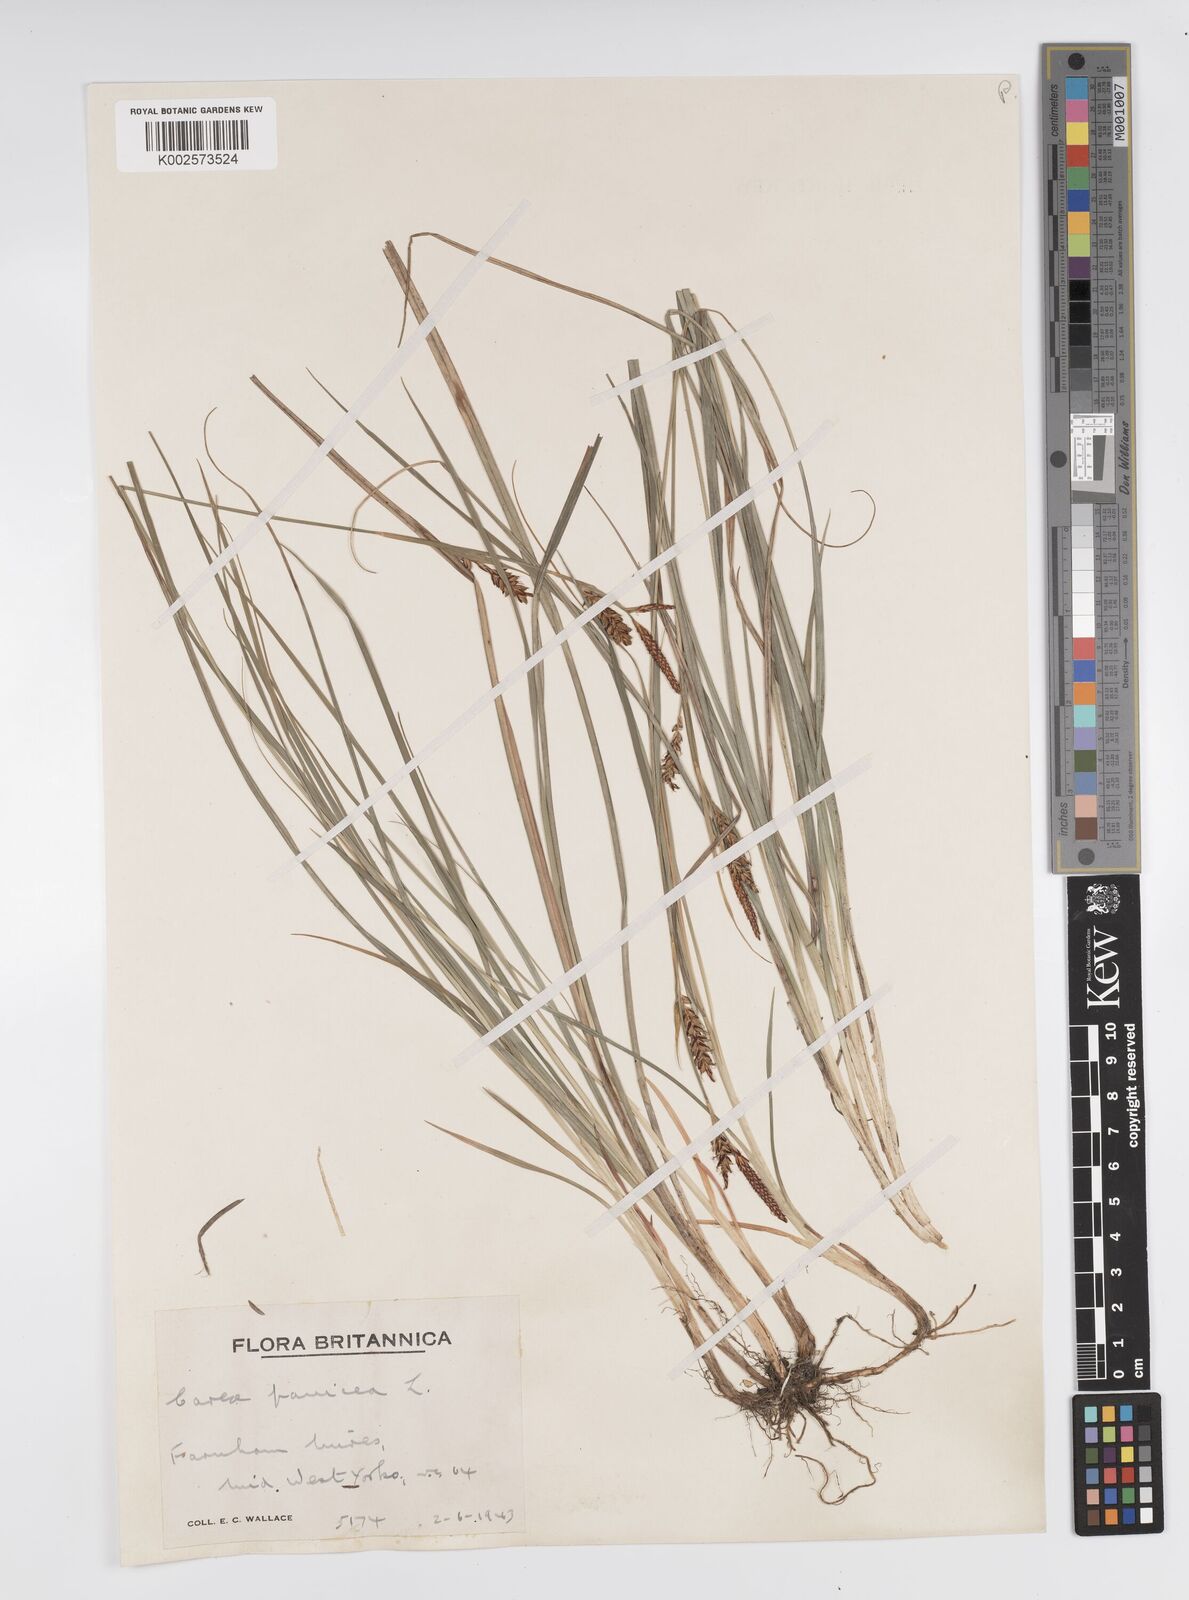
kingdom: Plantae
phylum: Tracheophyta
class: Liliopsida
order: Poales
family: Cyperaceae
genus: Carex
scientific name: Carex panicea
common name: Carnation sedge
